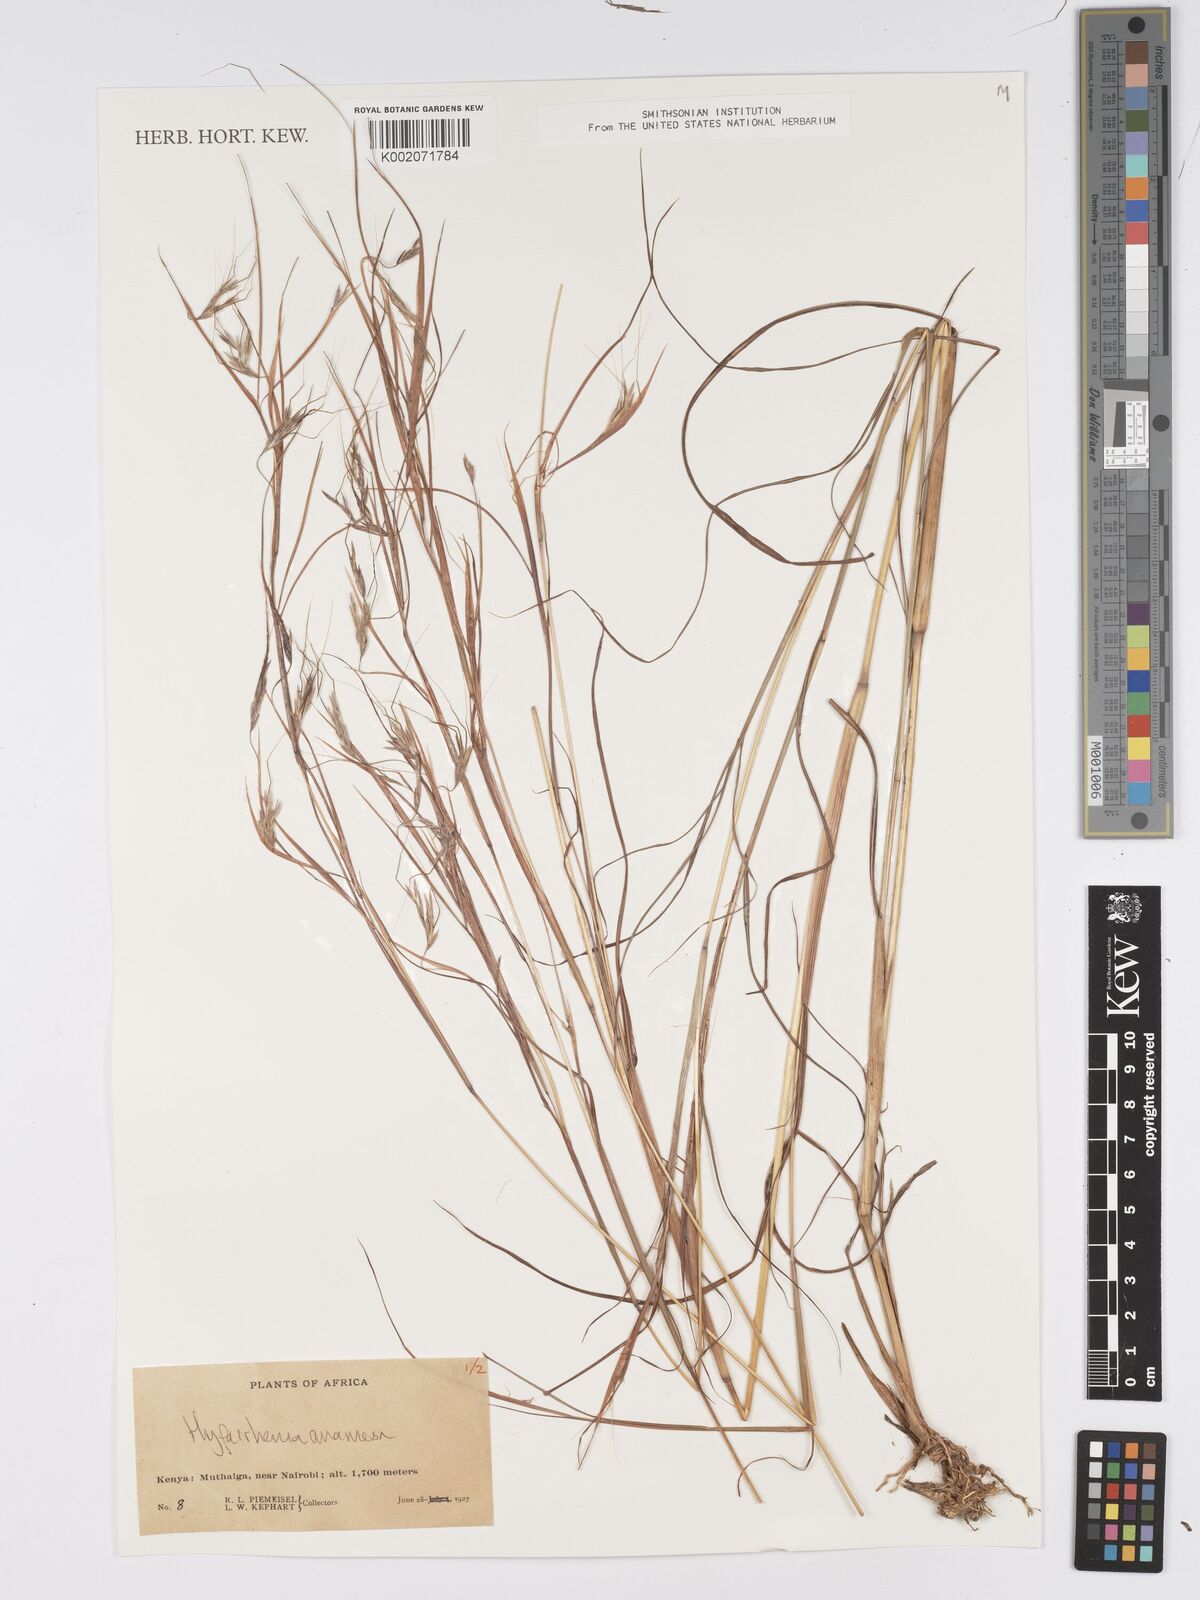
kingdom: Plantae
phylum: Tracheophyta
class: Liliopsida
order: Poales
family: Poaceae
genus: Hyparrhenia
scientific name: Hyparrhenia anamesa
